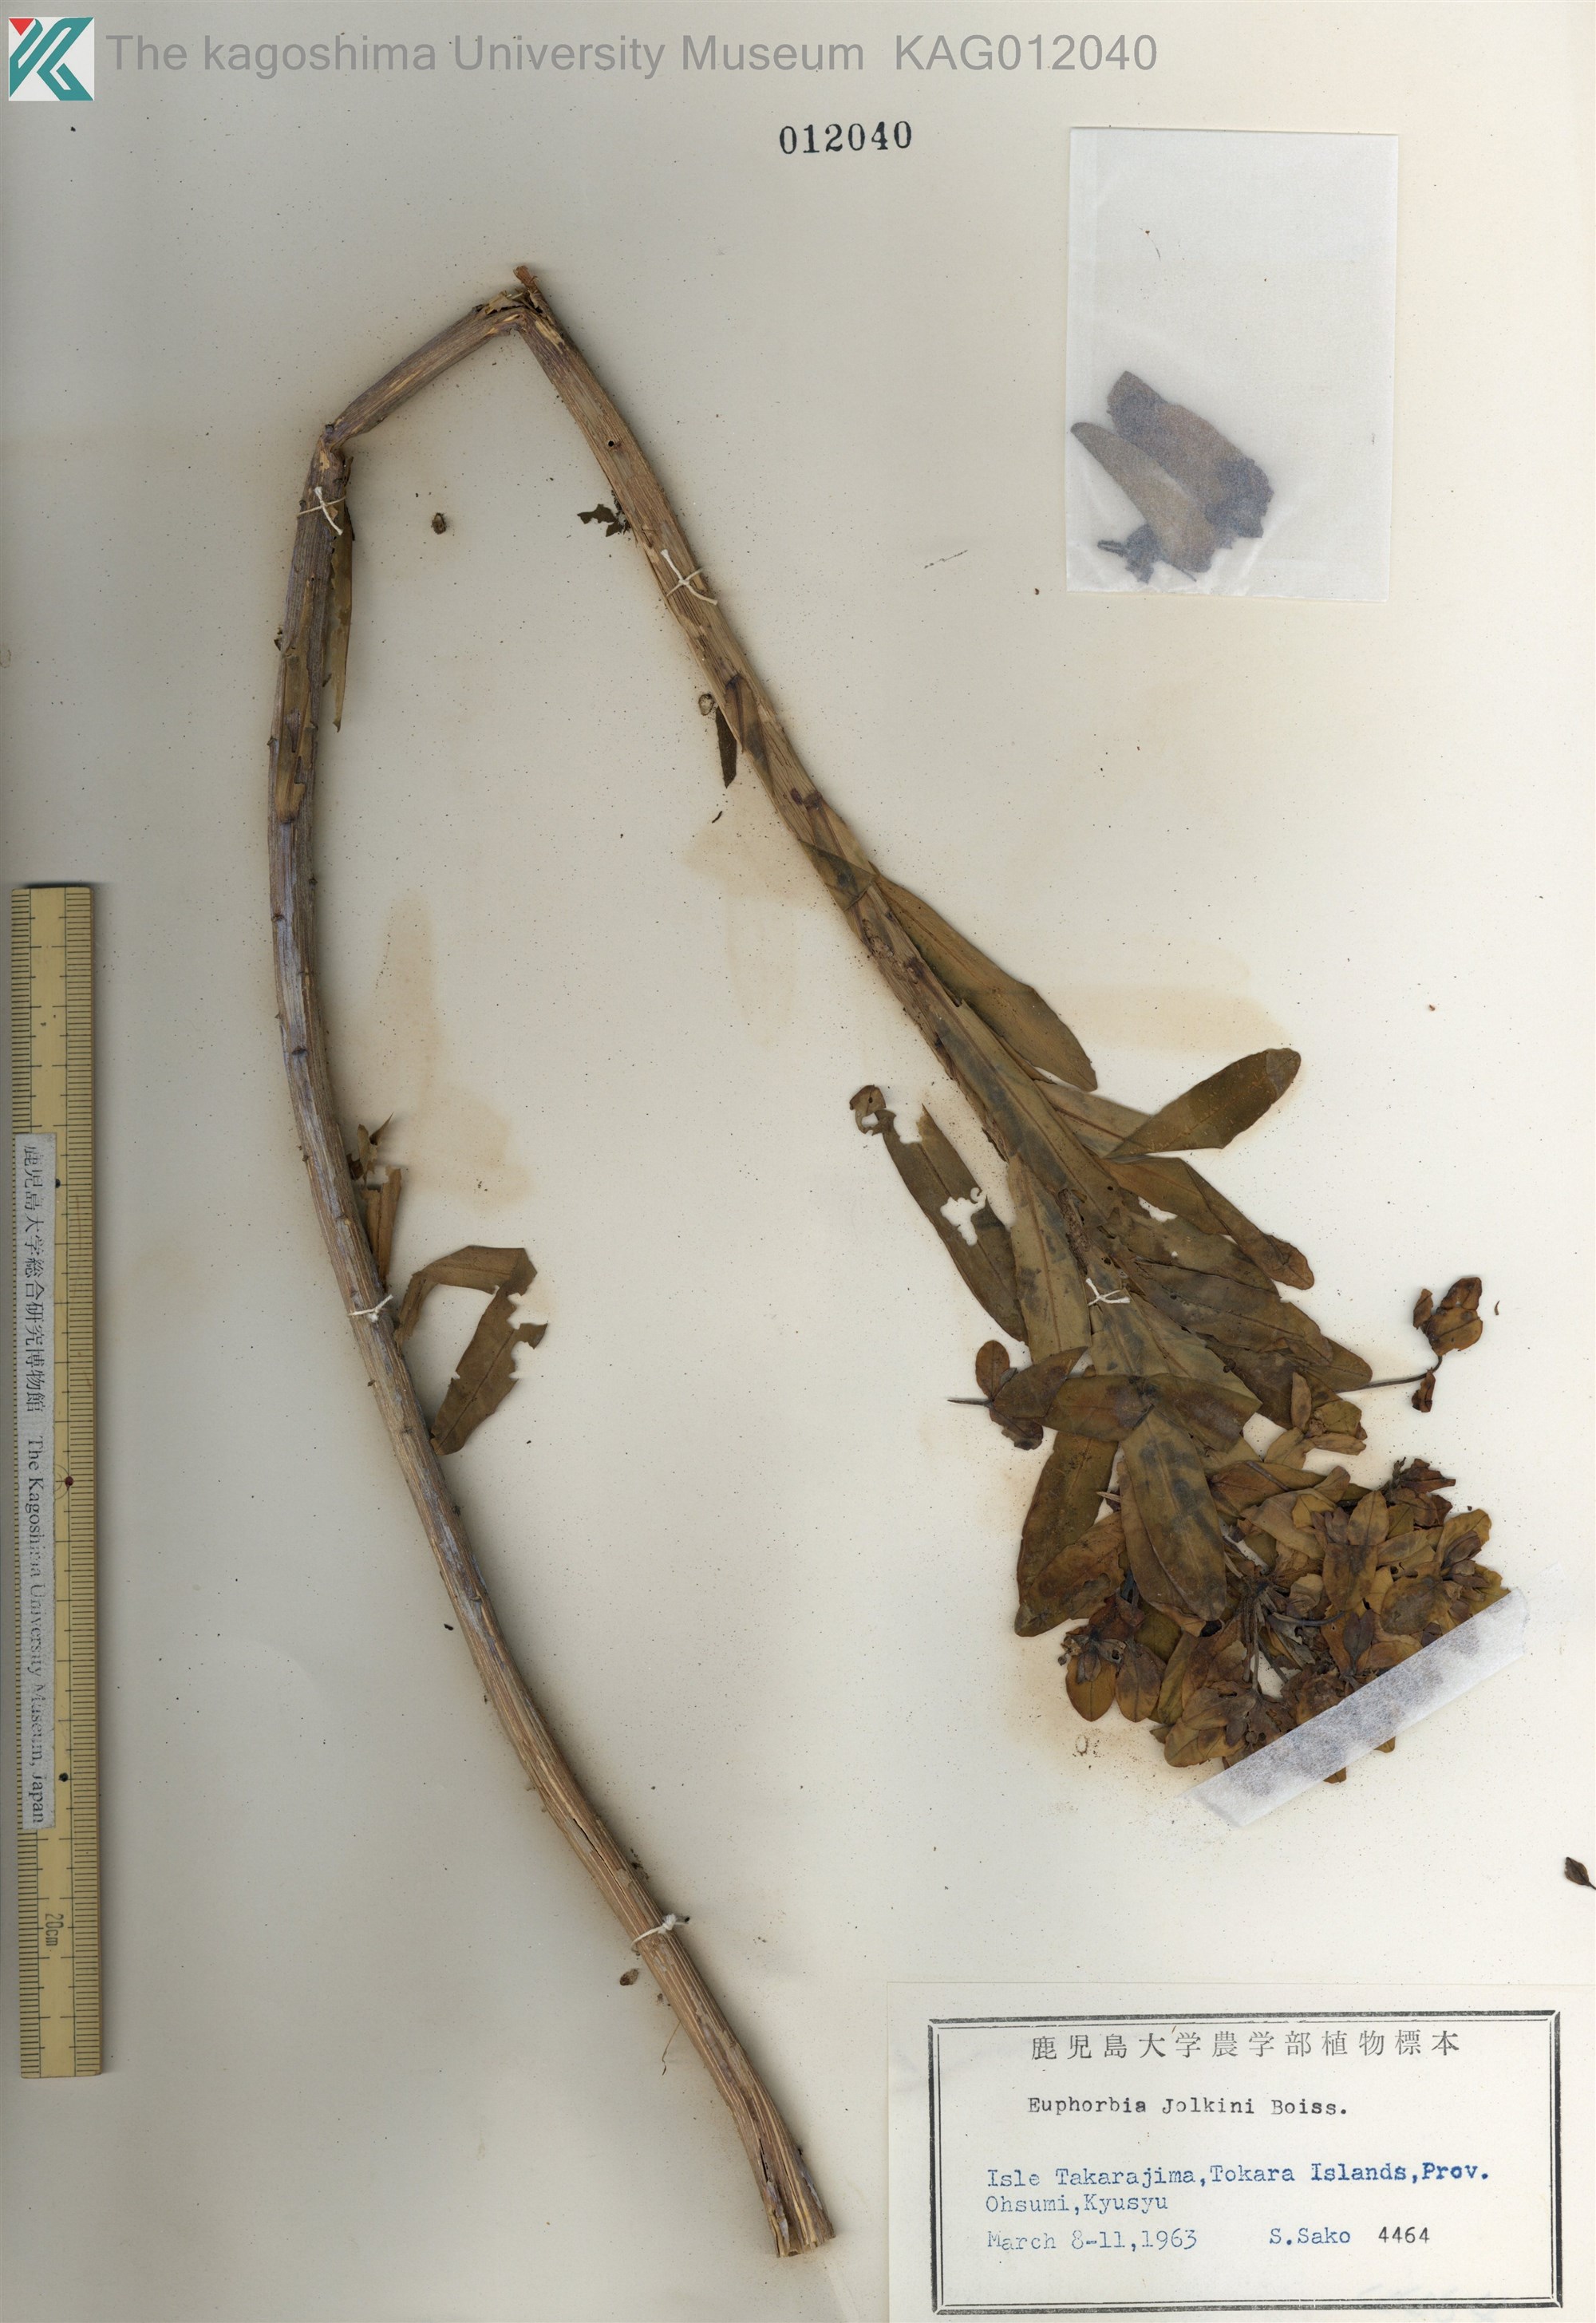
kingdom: Plantae
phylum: Tracheophyta
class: Magnoliopsida
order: Malpighiales
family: Euphorbiaceae
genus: Euphorbia
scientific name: Euphorbia jolkinii
